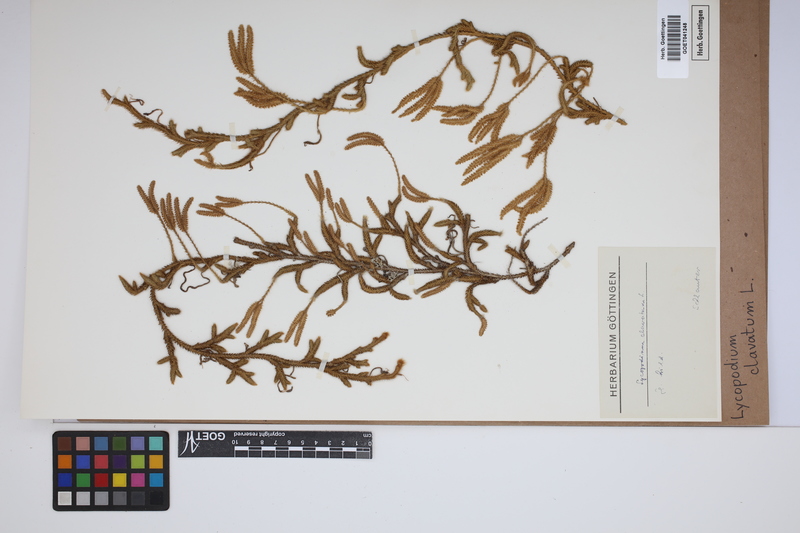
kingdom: Plantae
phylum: Tracheophyta
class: Lycopodiopsida
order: Lycopodiales
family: Lycopodiaceae
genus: Lycopodium
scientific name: Lycopodium clavatum
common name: Stag's-horn clubmoss
